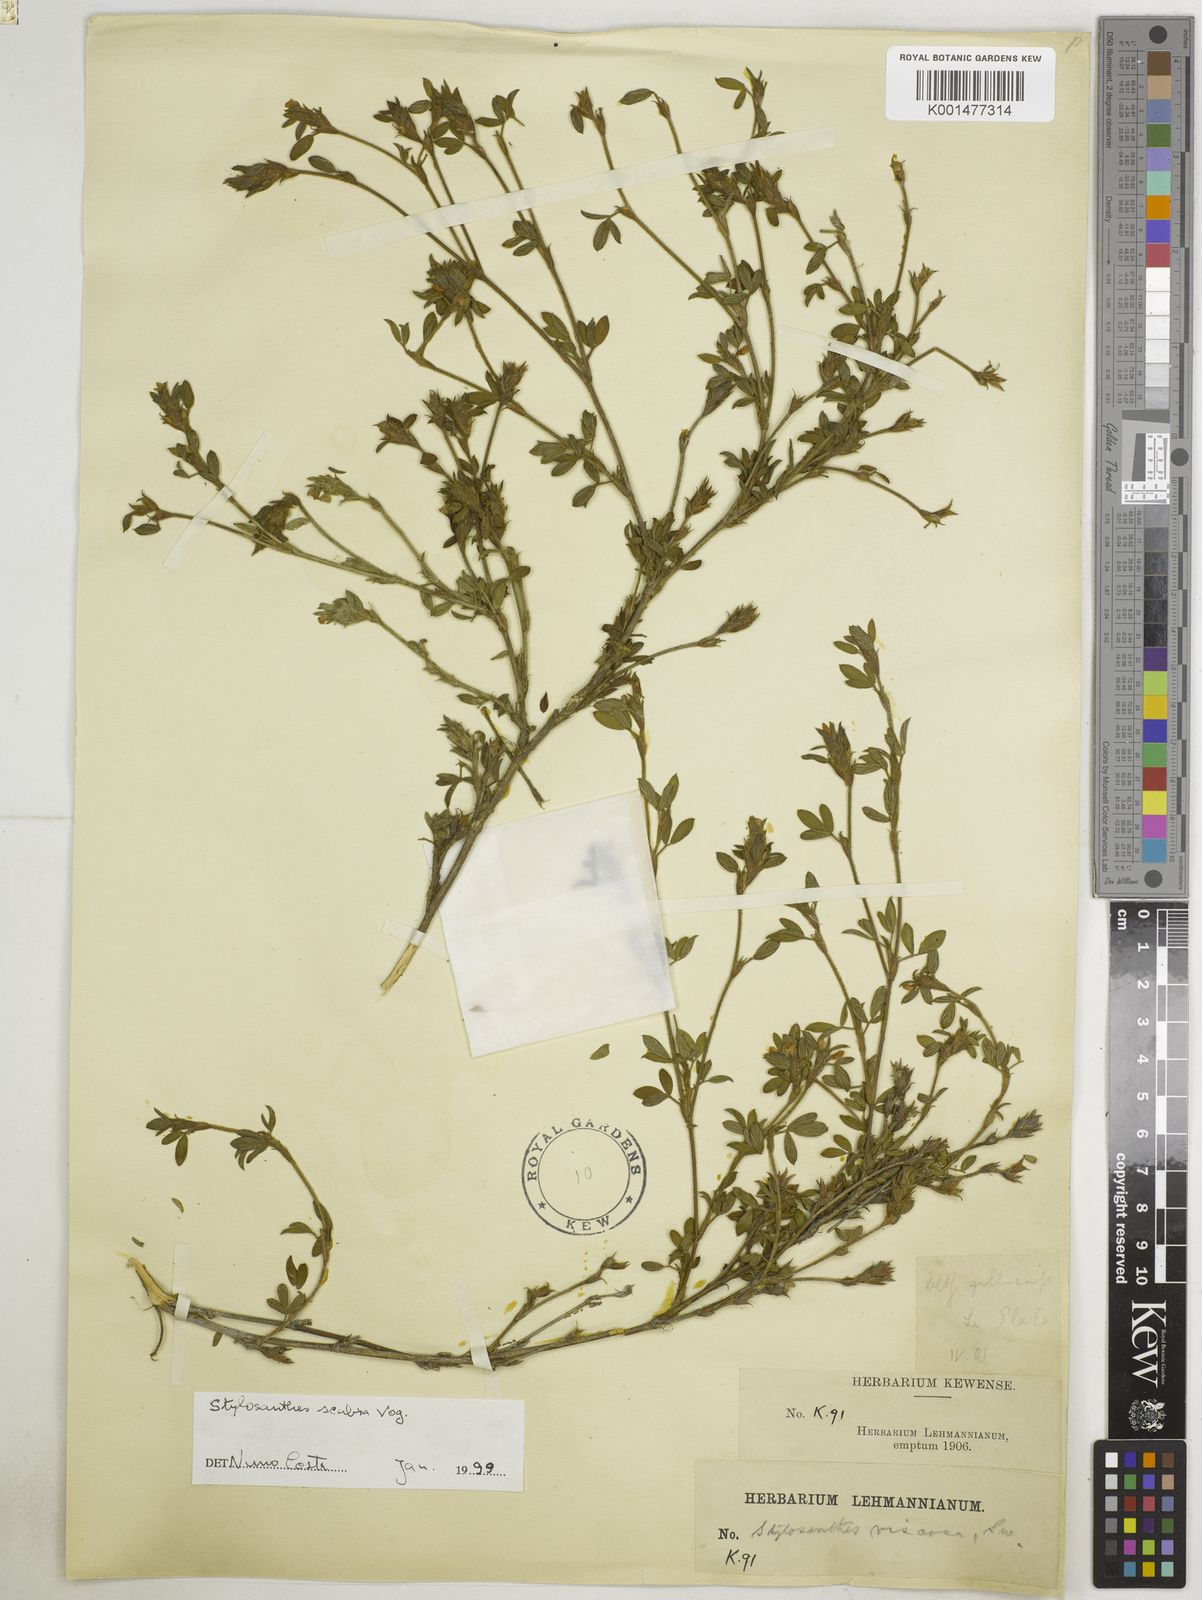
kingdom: Plantae
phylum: Tracheophyta
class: Magnoliopsida
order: Fabales
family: Fabaceae
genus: Stylosanthes
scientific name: Stylosanthes scabra
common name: Pencilflower
